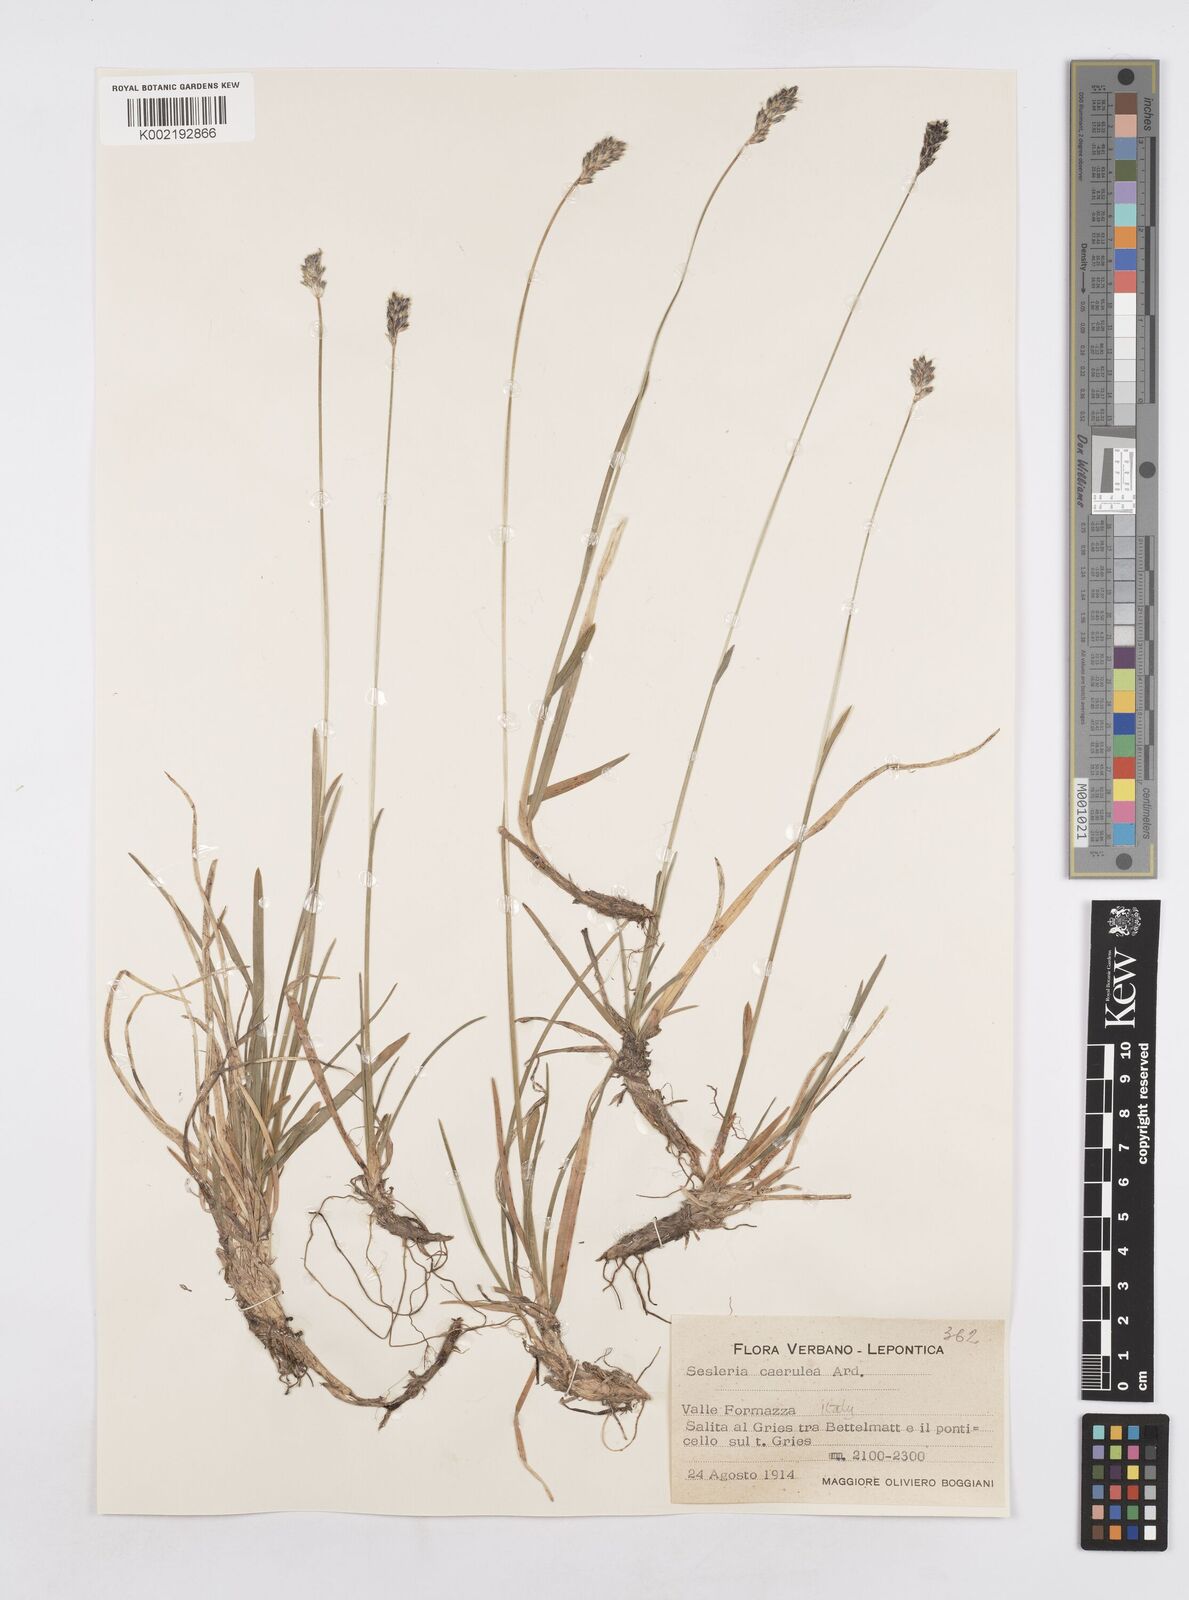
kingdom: Plantae
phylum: Tracheophyta
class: Liliopsida
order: Poales
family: Poaceae
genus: Sesleria
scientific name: Sesleria albicans
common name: Blue moor-grass
